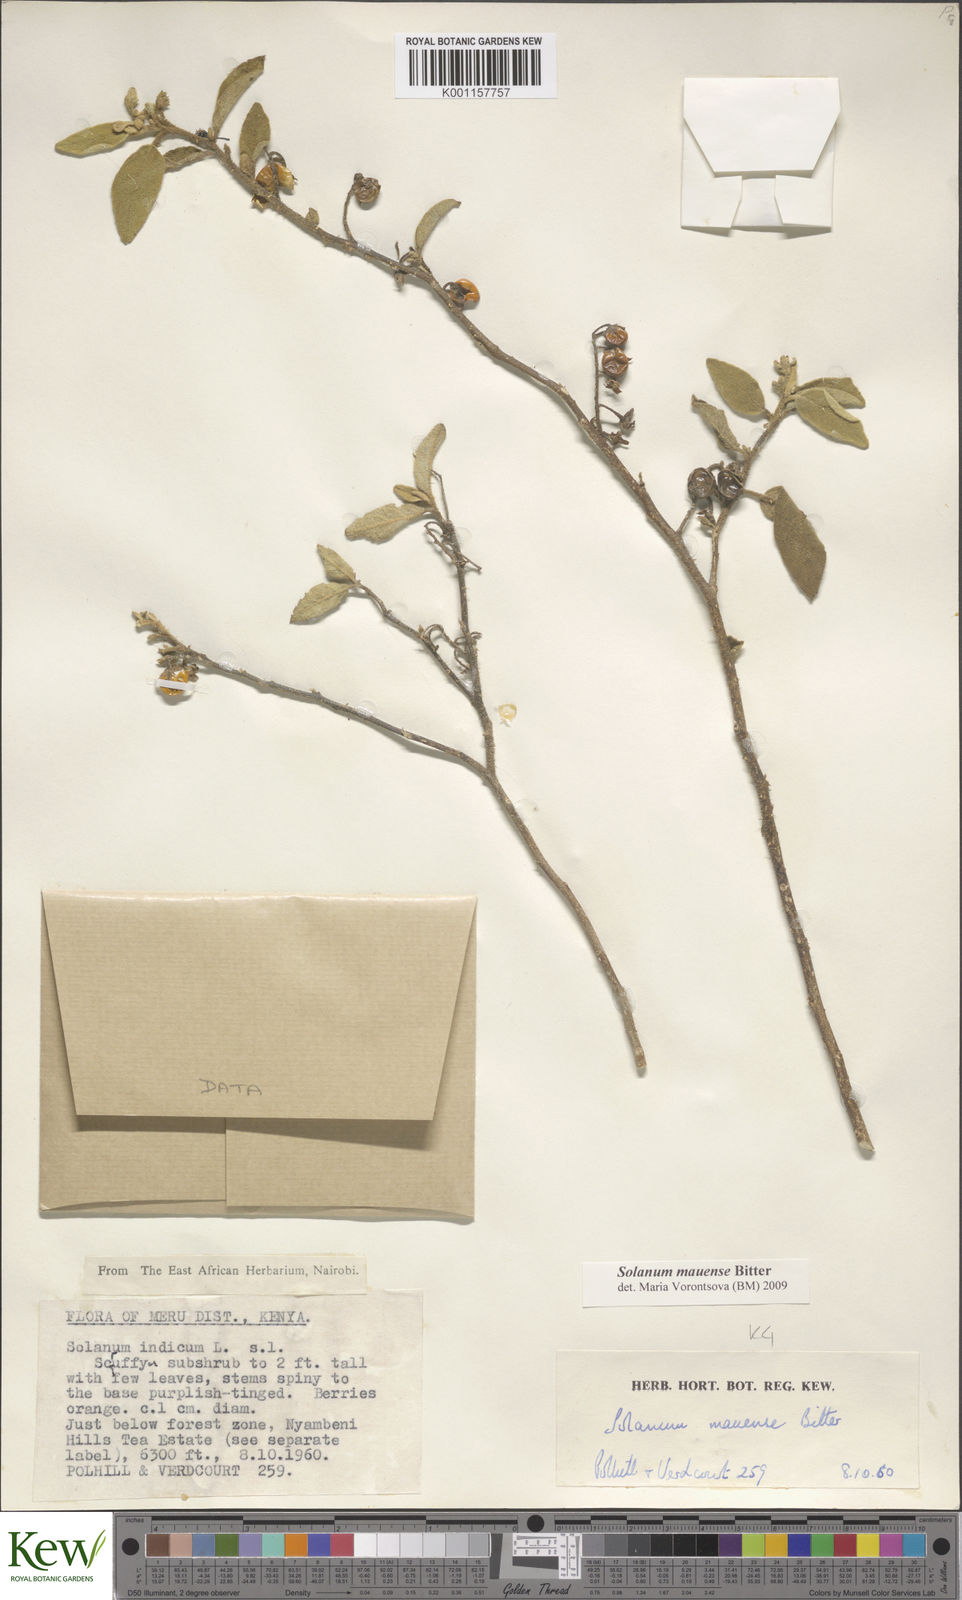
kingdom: Plantae
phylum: Tracheophyta
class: Magnoliopsida
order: Solanales
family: Solanaceae
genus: Solanum
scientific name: Solanum mauense
